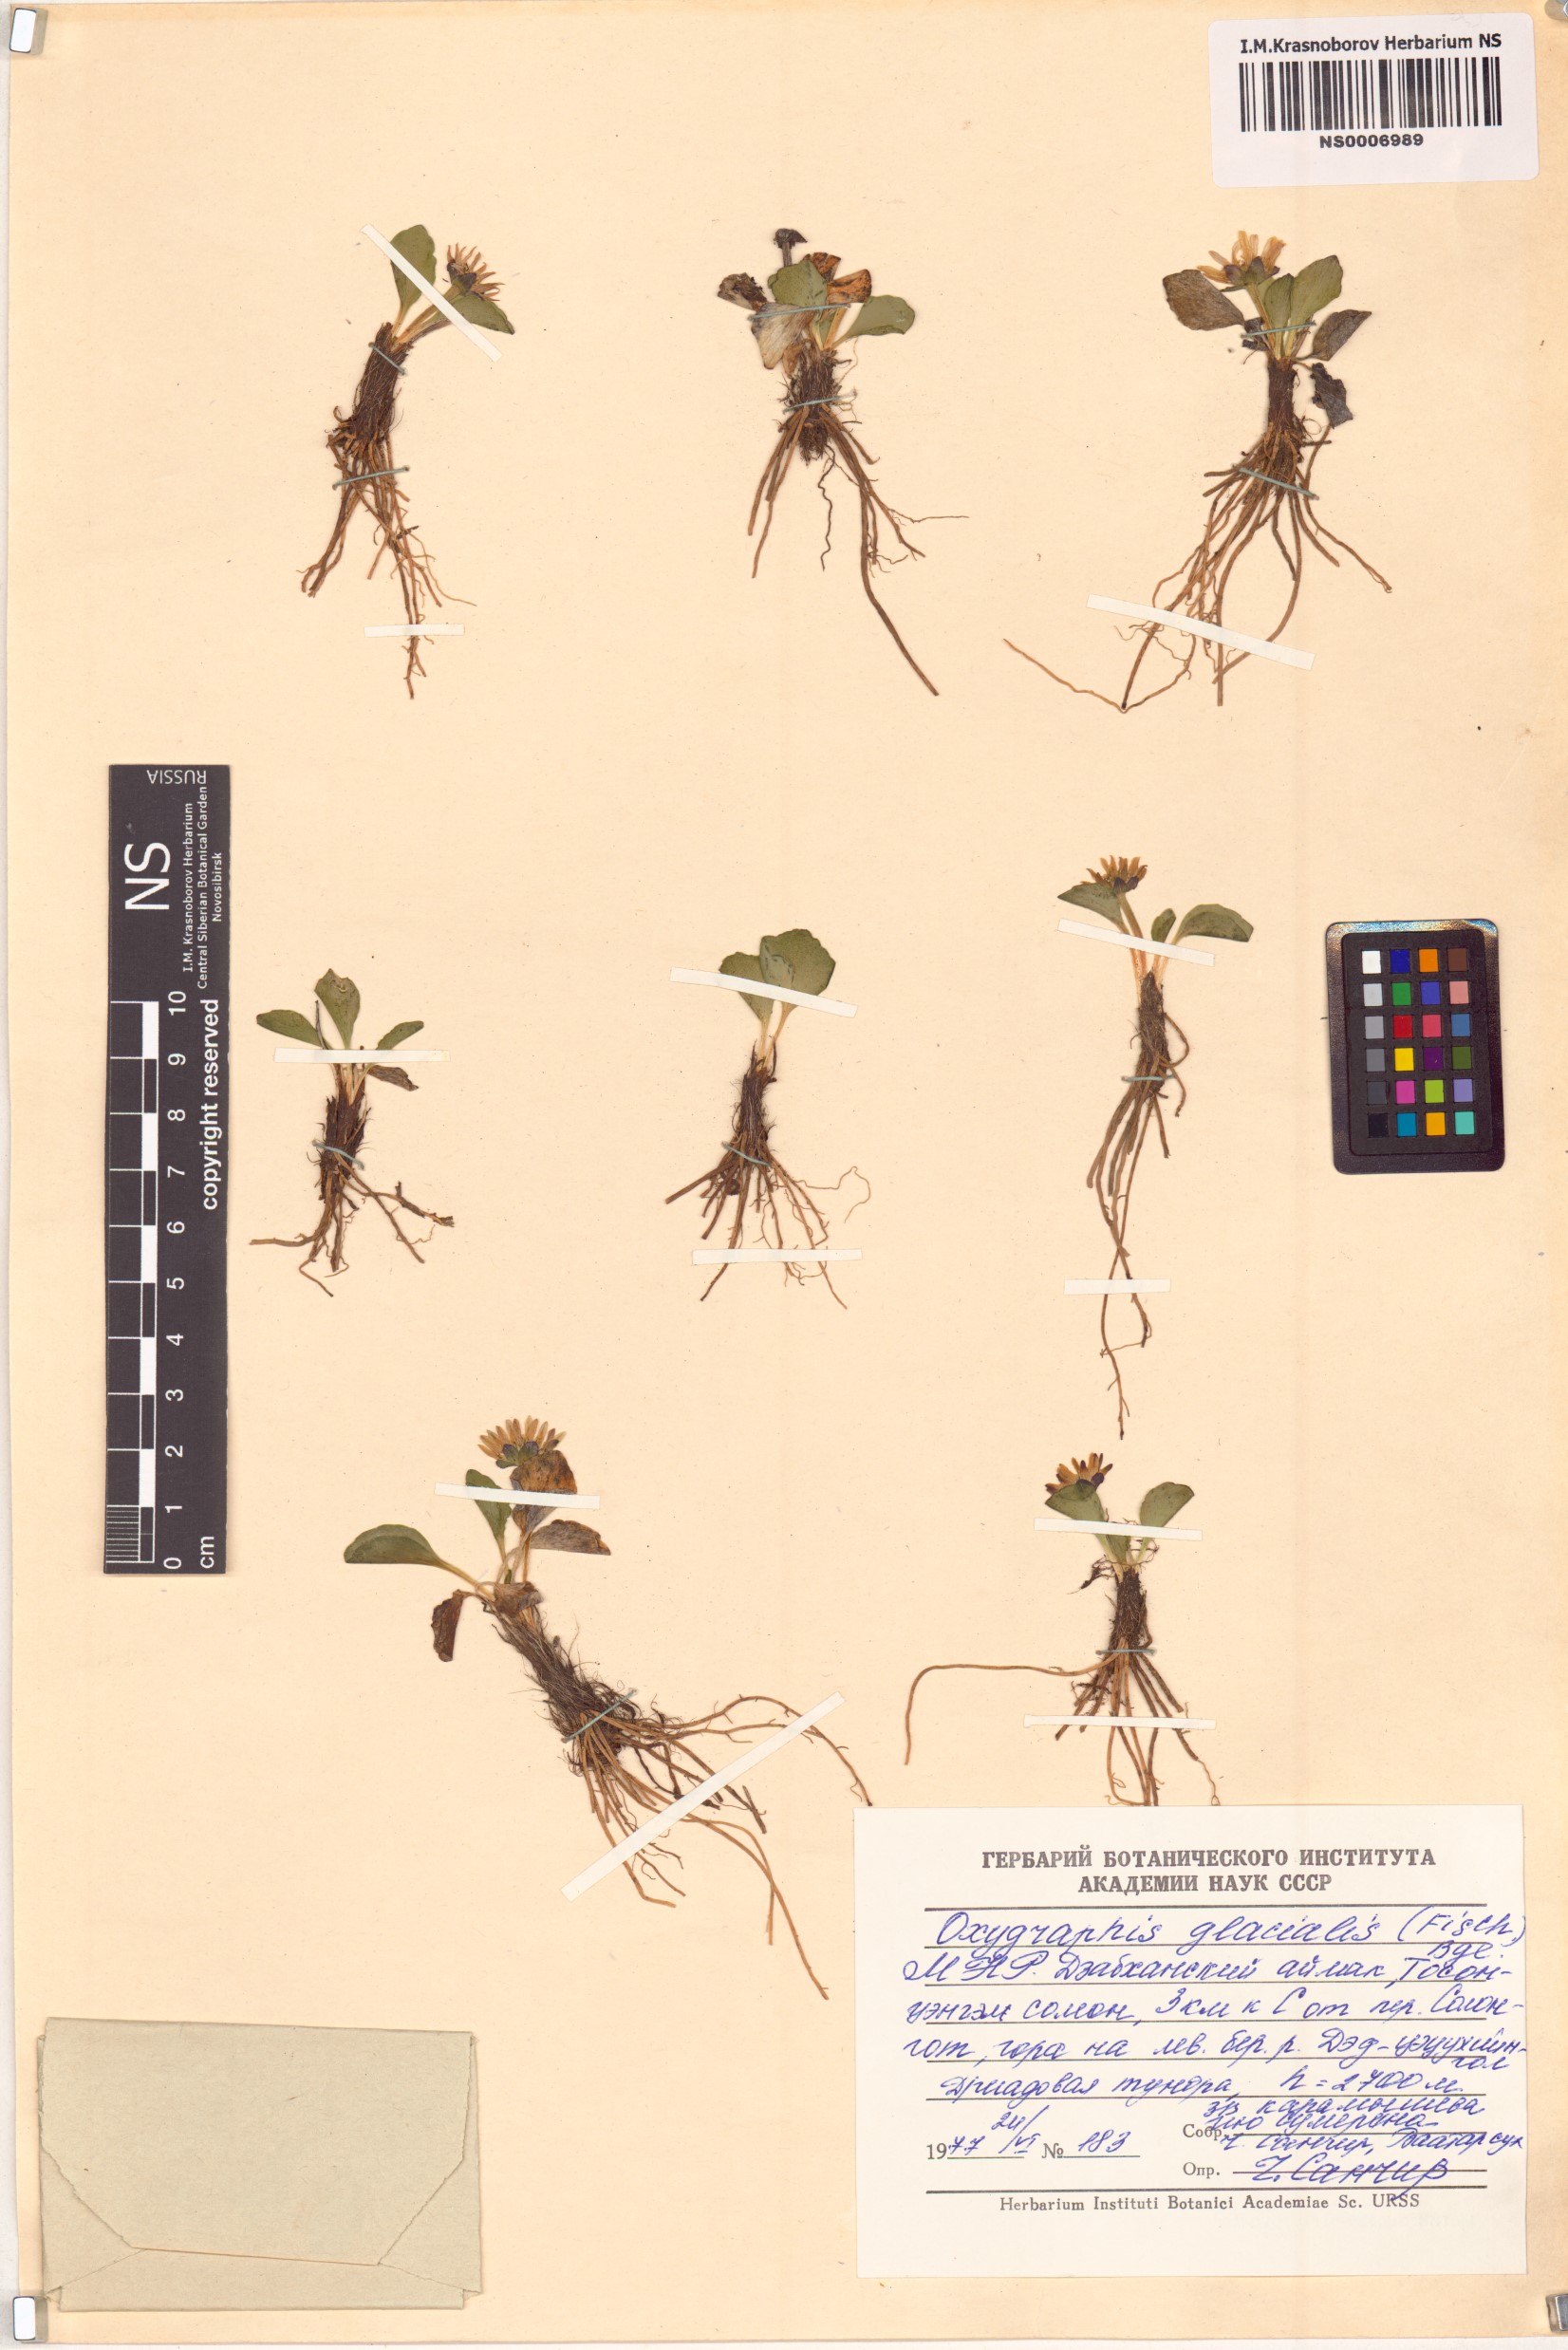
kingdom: Plantae
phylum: Tracheophyta
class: Magnoliopsida
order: Ranunculales
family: Ranunculaceae
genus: Oxygraphis
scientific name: Oxygraphis kamchatica
